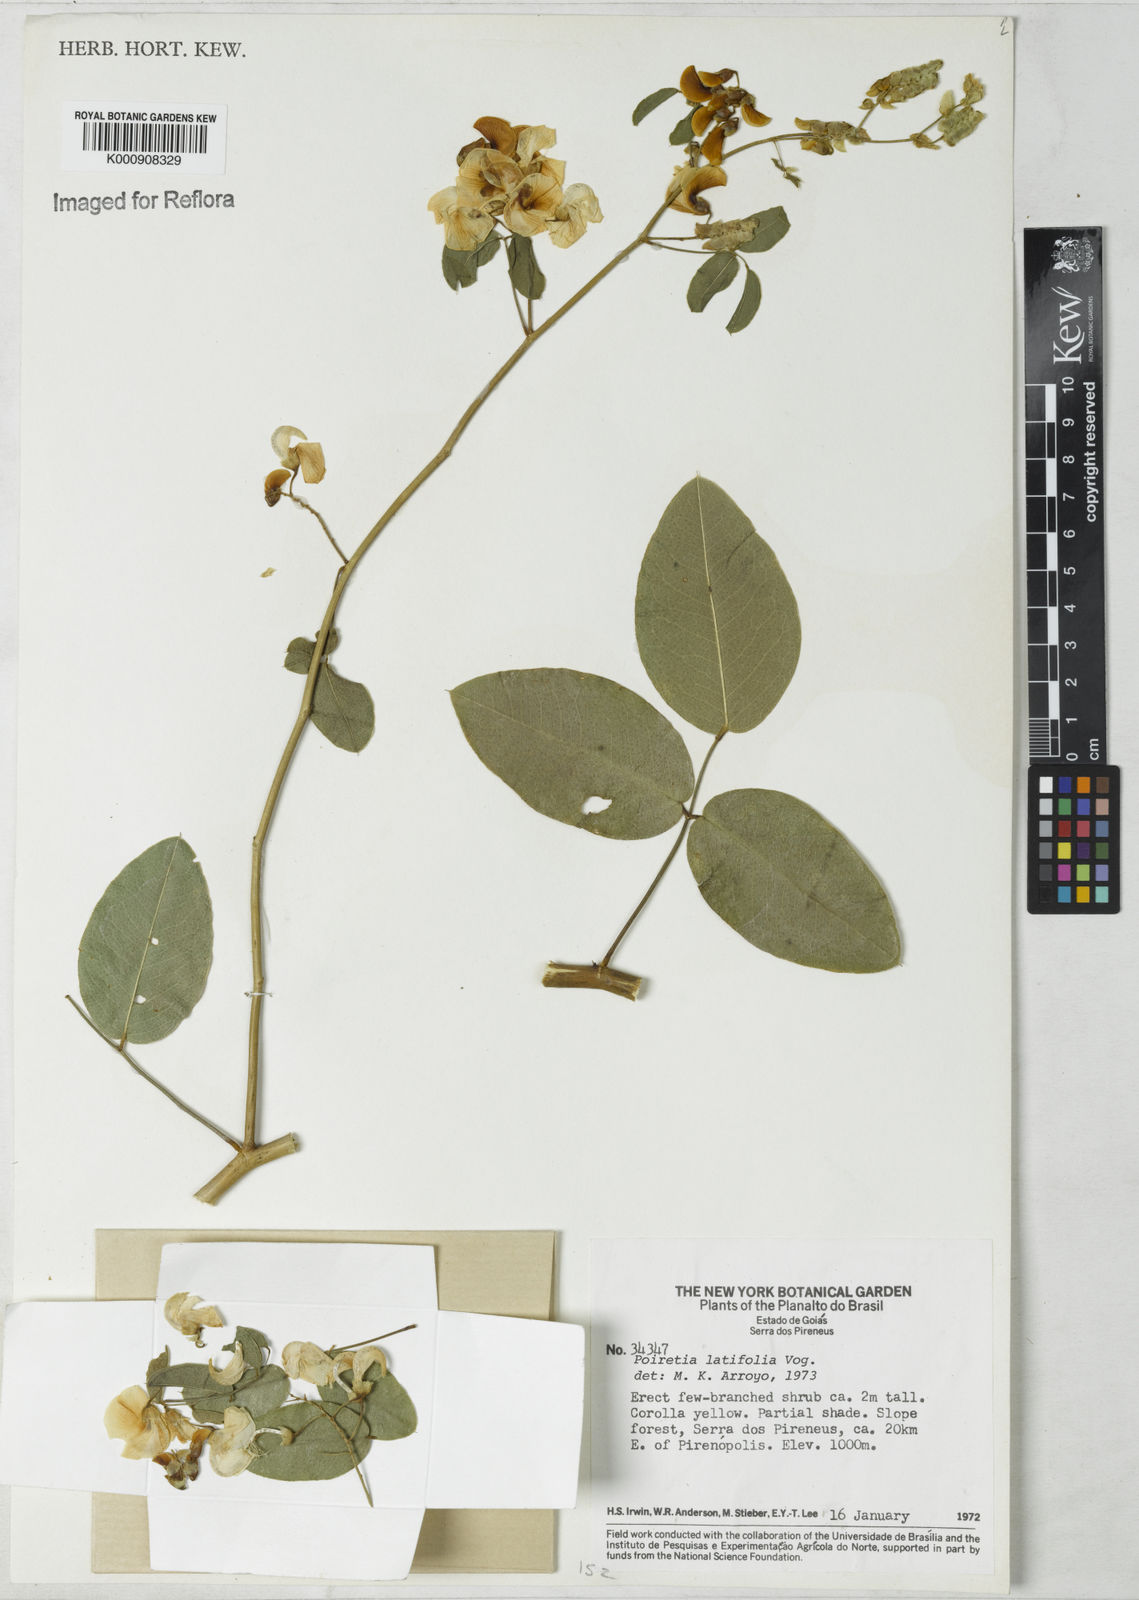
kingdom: Plantae
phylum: Tracheophyta
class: Magnoliopsida
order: Fabales
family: Fabaceae
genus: Poiretia
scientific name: Poiretia latifolia
